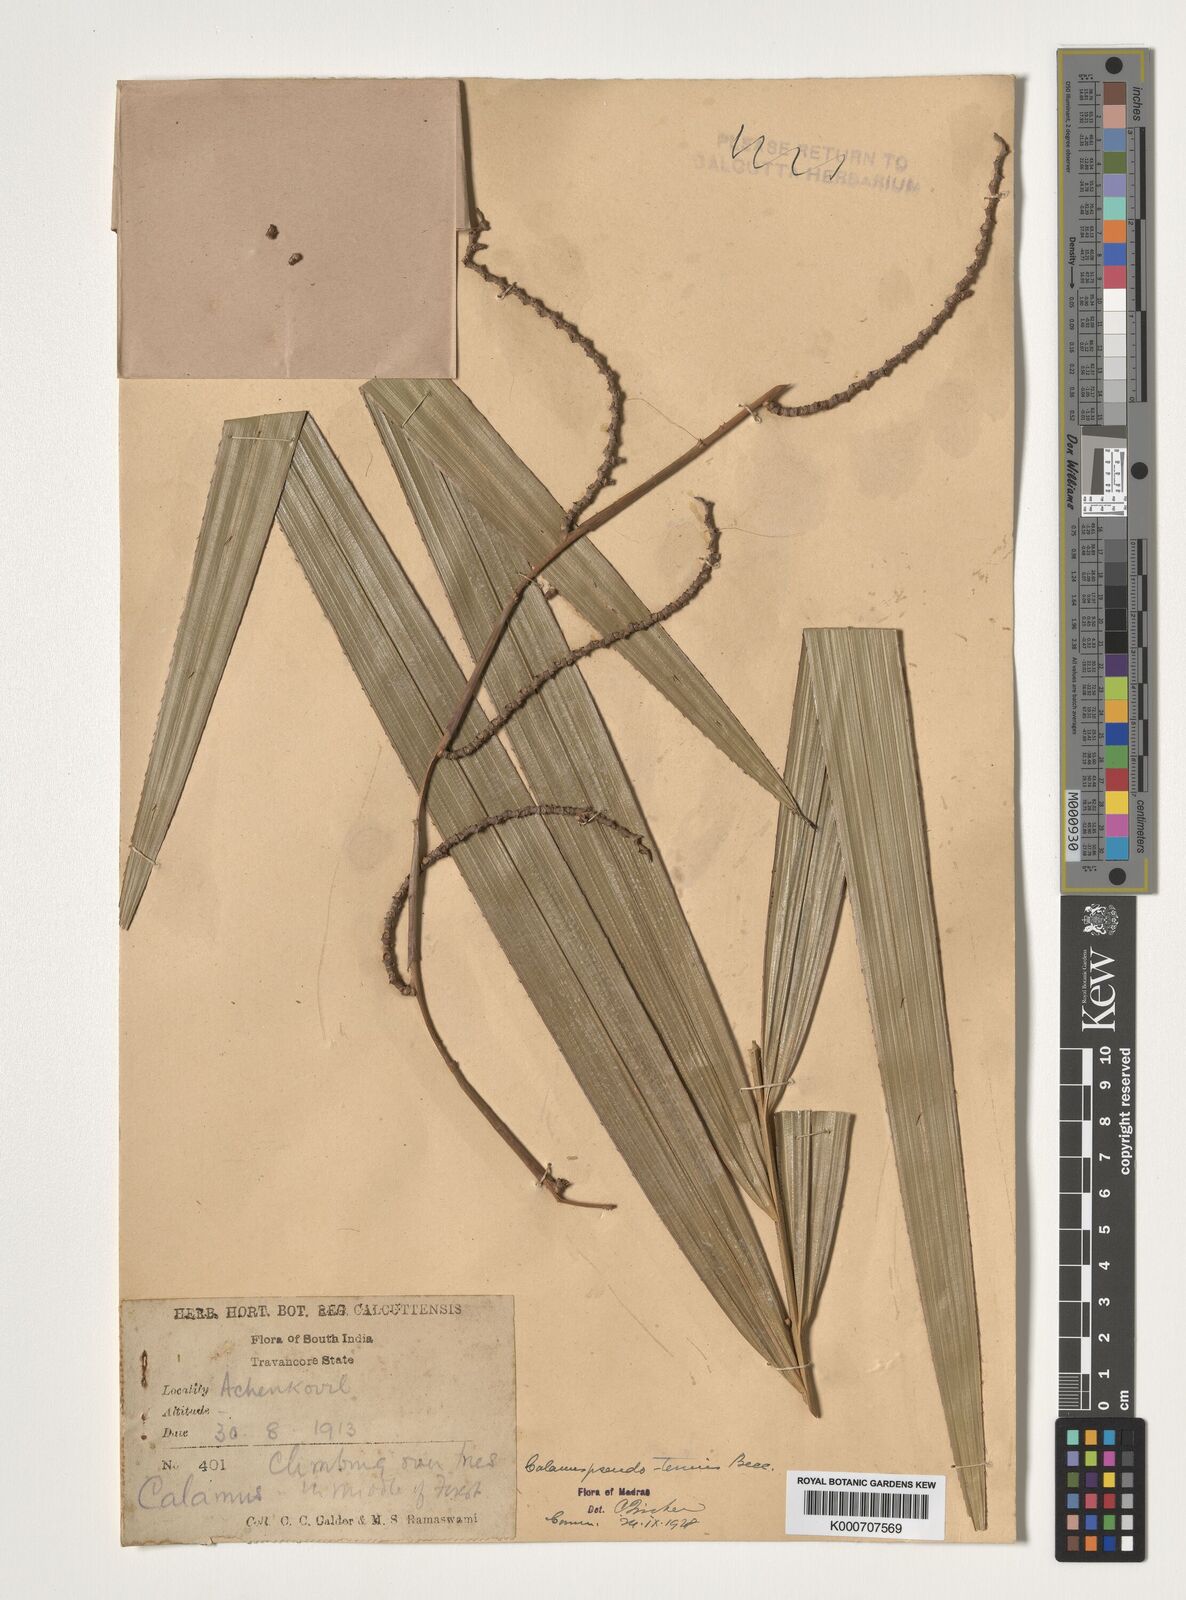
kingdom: Plantae
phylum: Tracheophyta
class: Liliopsida
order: Arecales
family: Arecaceae
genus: Calamus
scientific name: Calamus pseudotenuis
